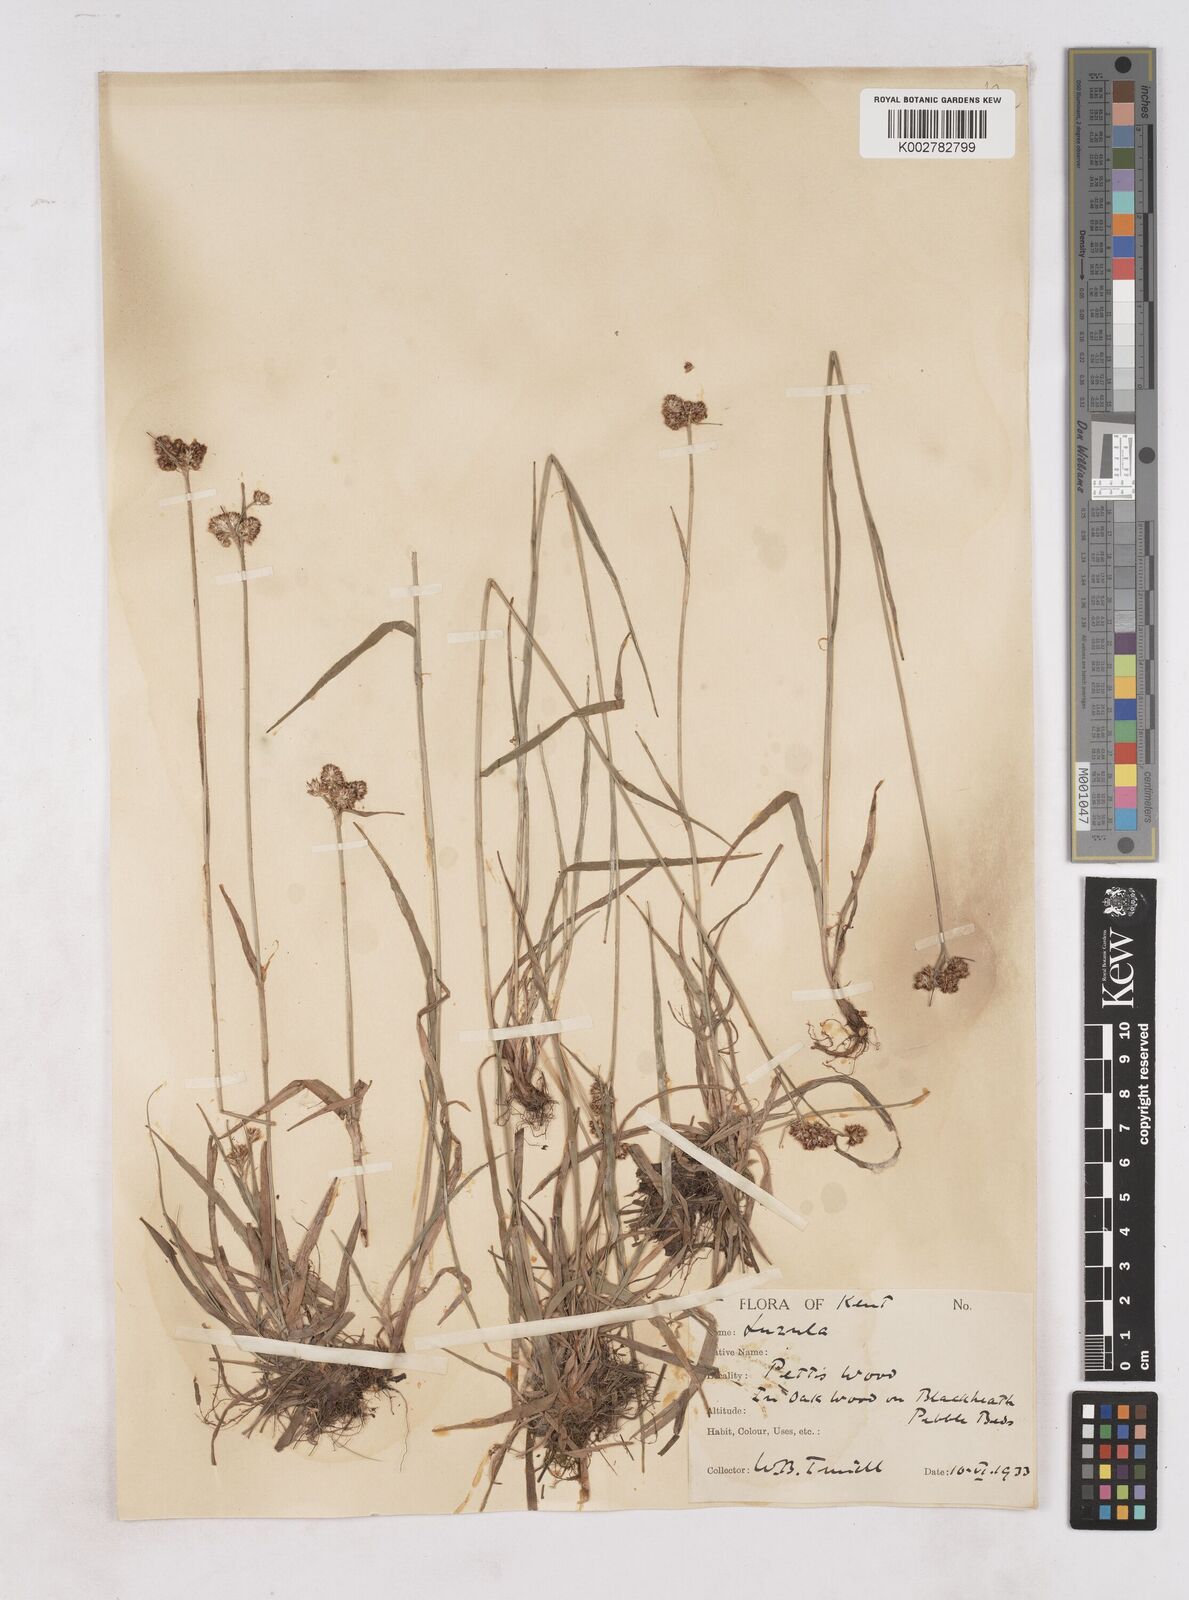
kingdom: Plantae
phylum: Tracheophyta
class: Liliopsida
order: Poales
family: Juncaceae
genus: Luzula
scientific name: Luzula campestris
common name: Field wood-rush
